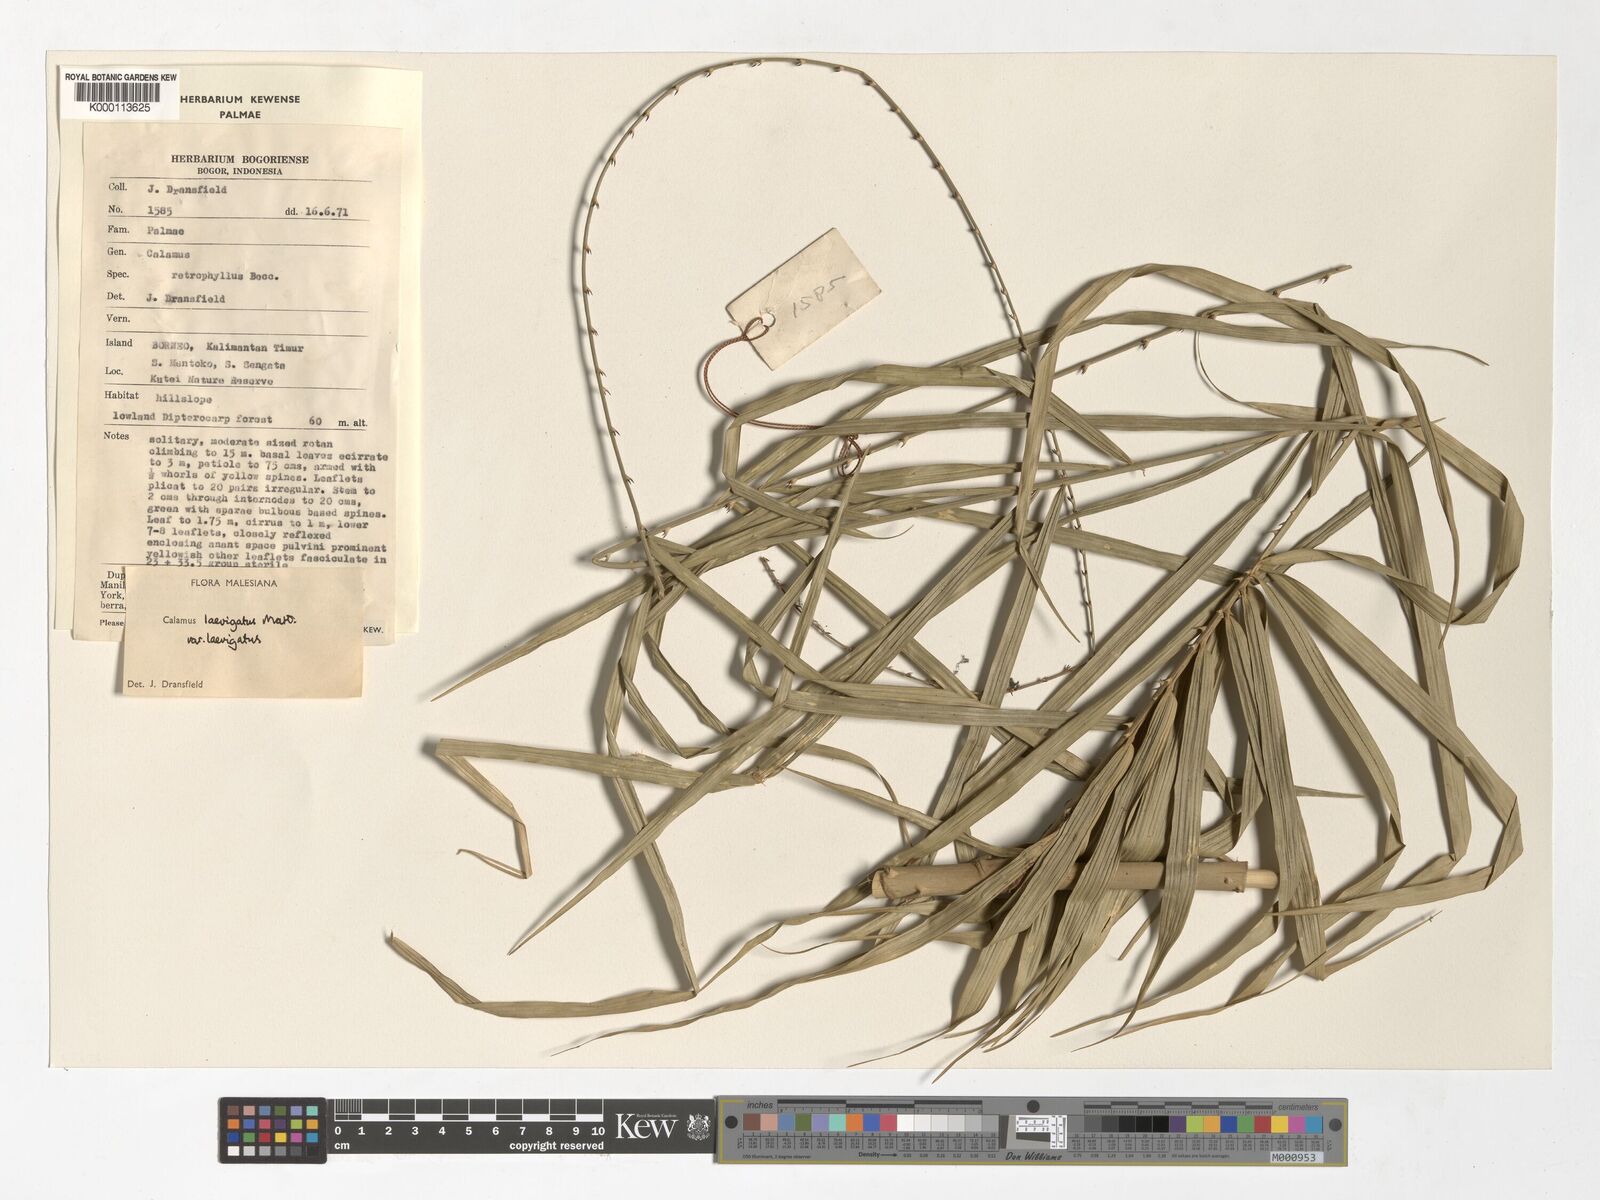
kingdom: Plantae
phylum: Tracheophyta
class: Liliopsida
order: Arecales
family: Arecaceae
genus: Calamus
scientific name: Calamus
